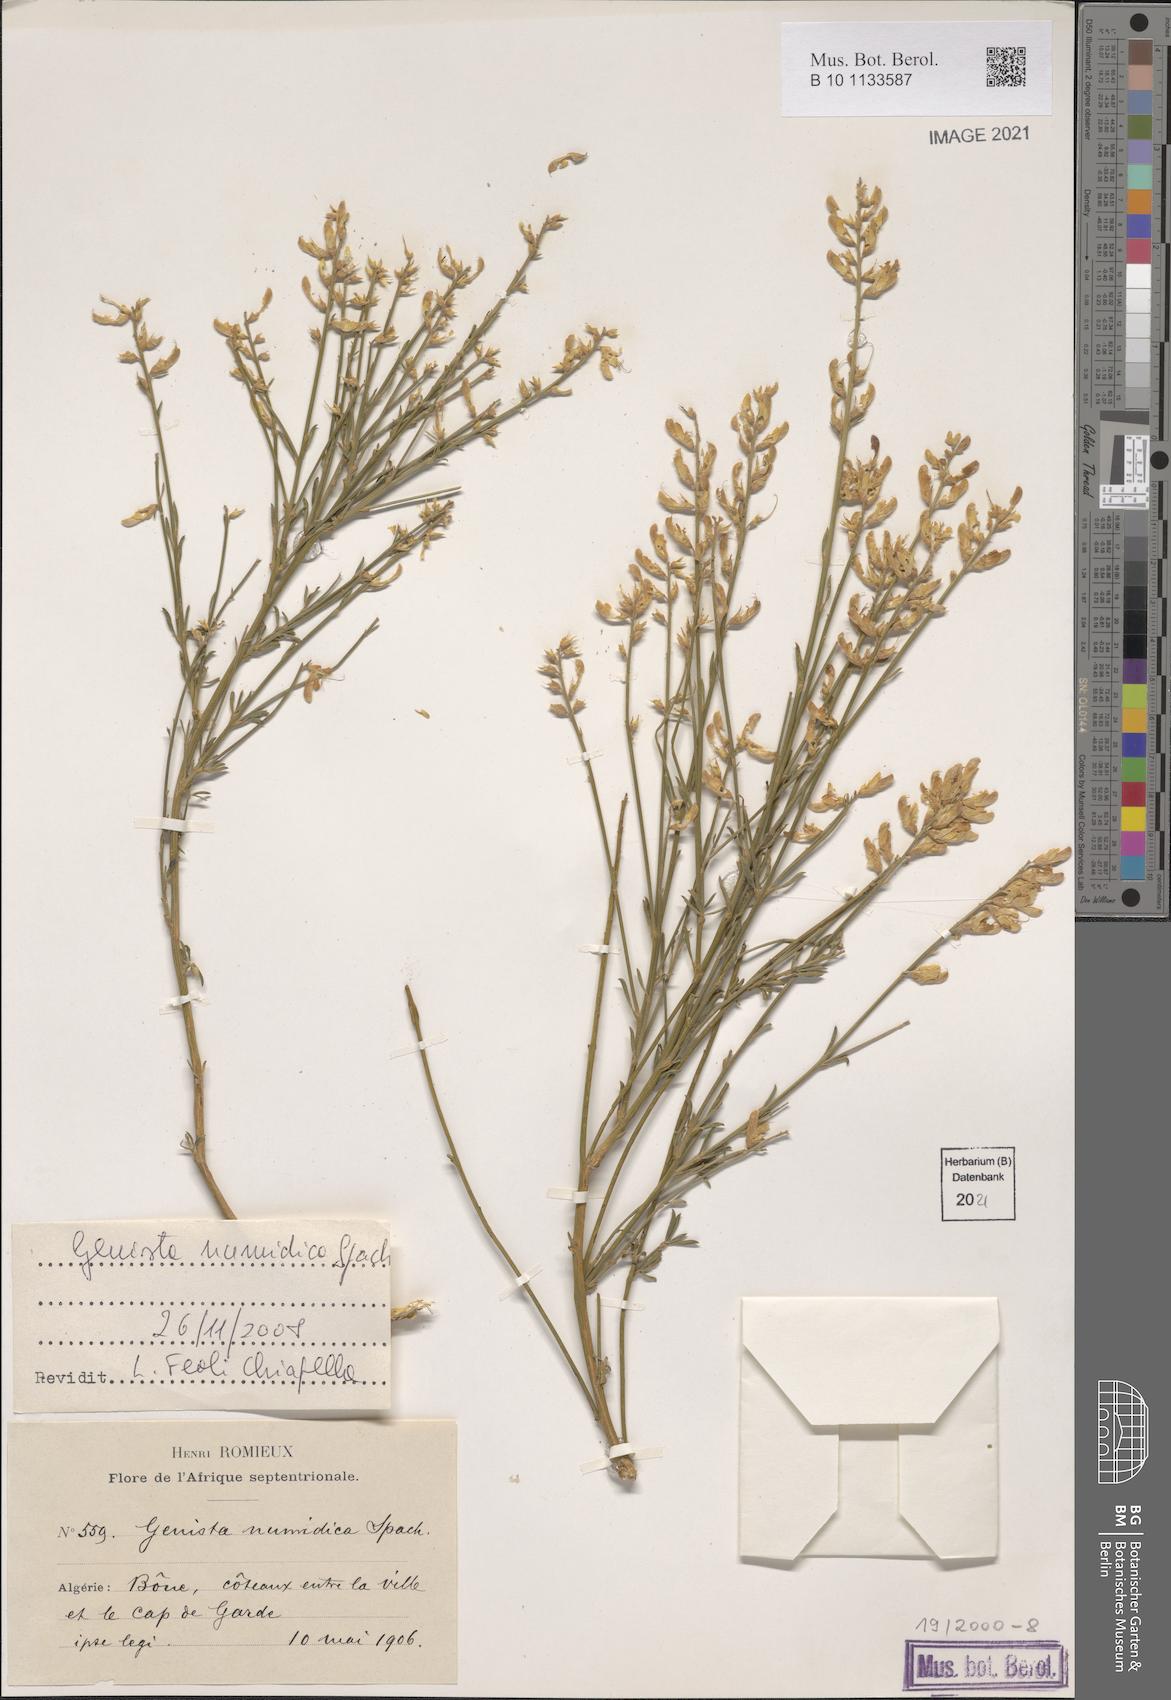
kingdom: Plantae
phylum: Tracheophyta
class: Magnoliopsida
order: Fabales
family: Fabaceae
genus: Genista
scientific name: Genista numidica
